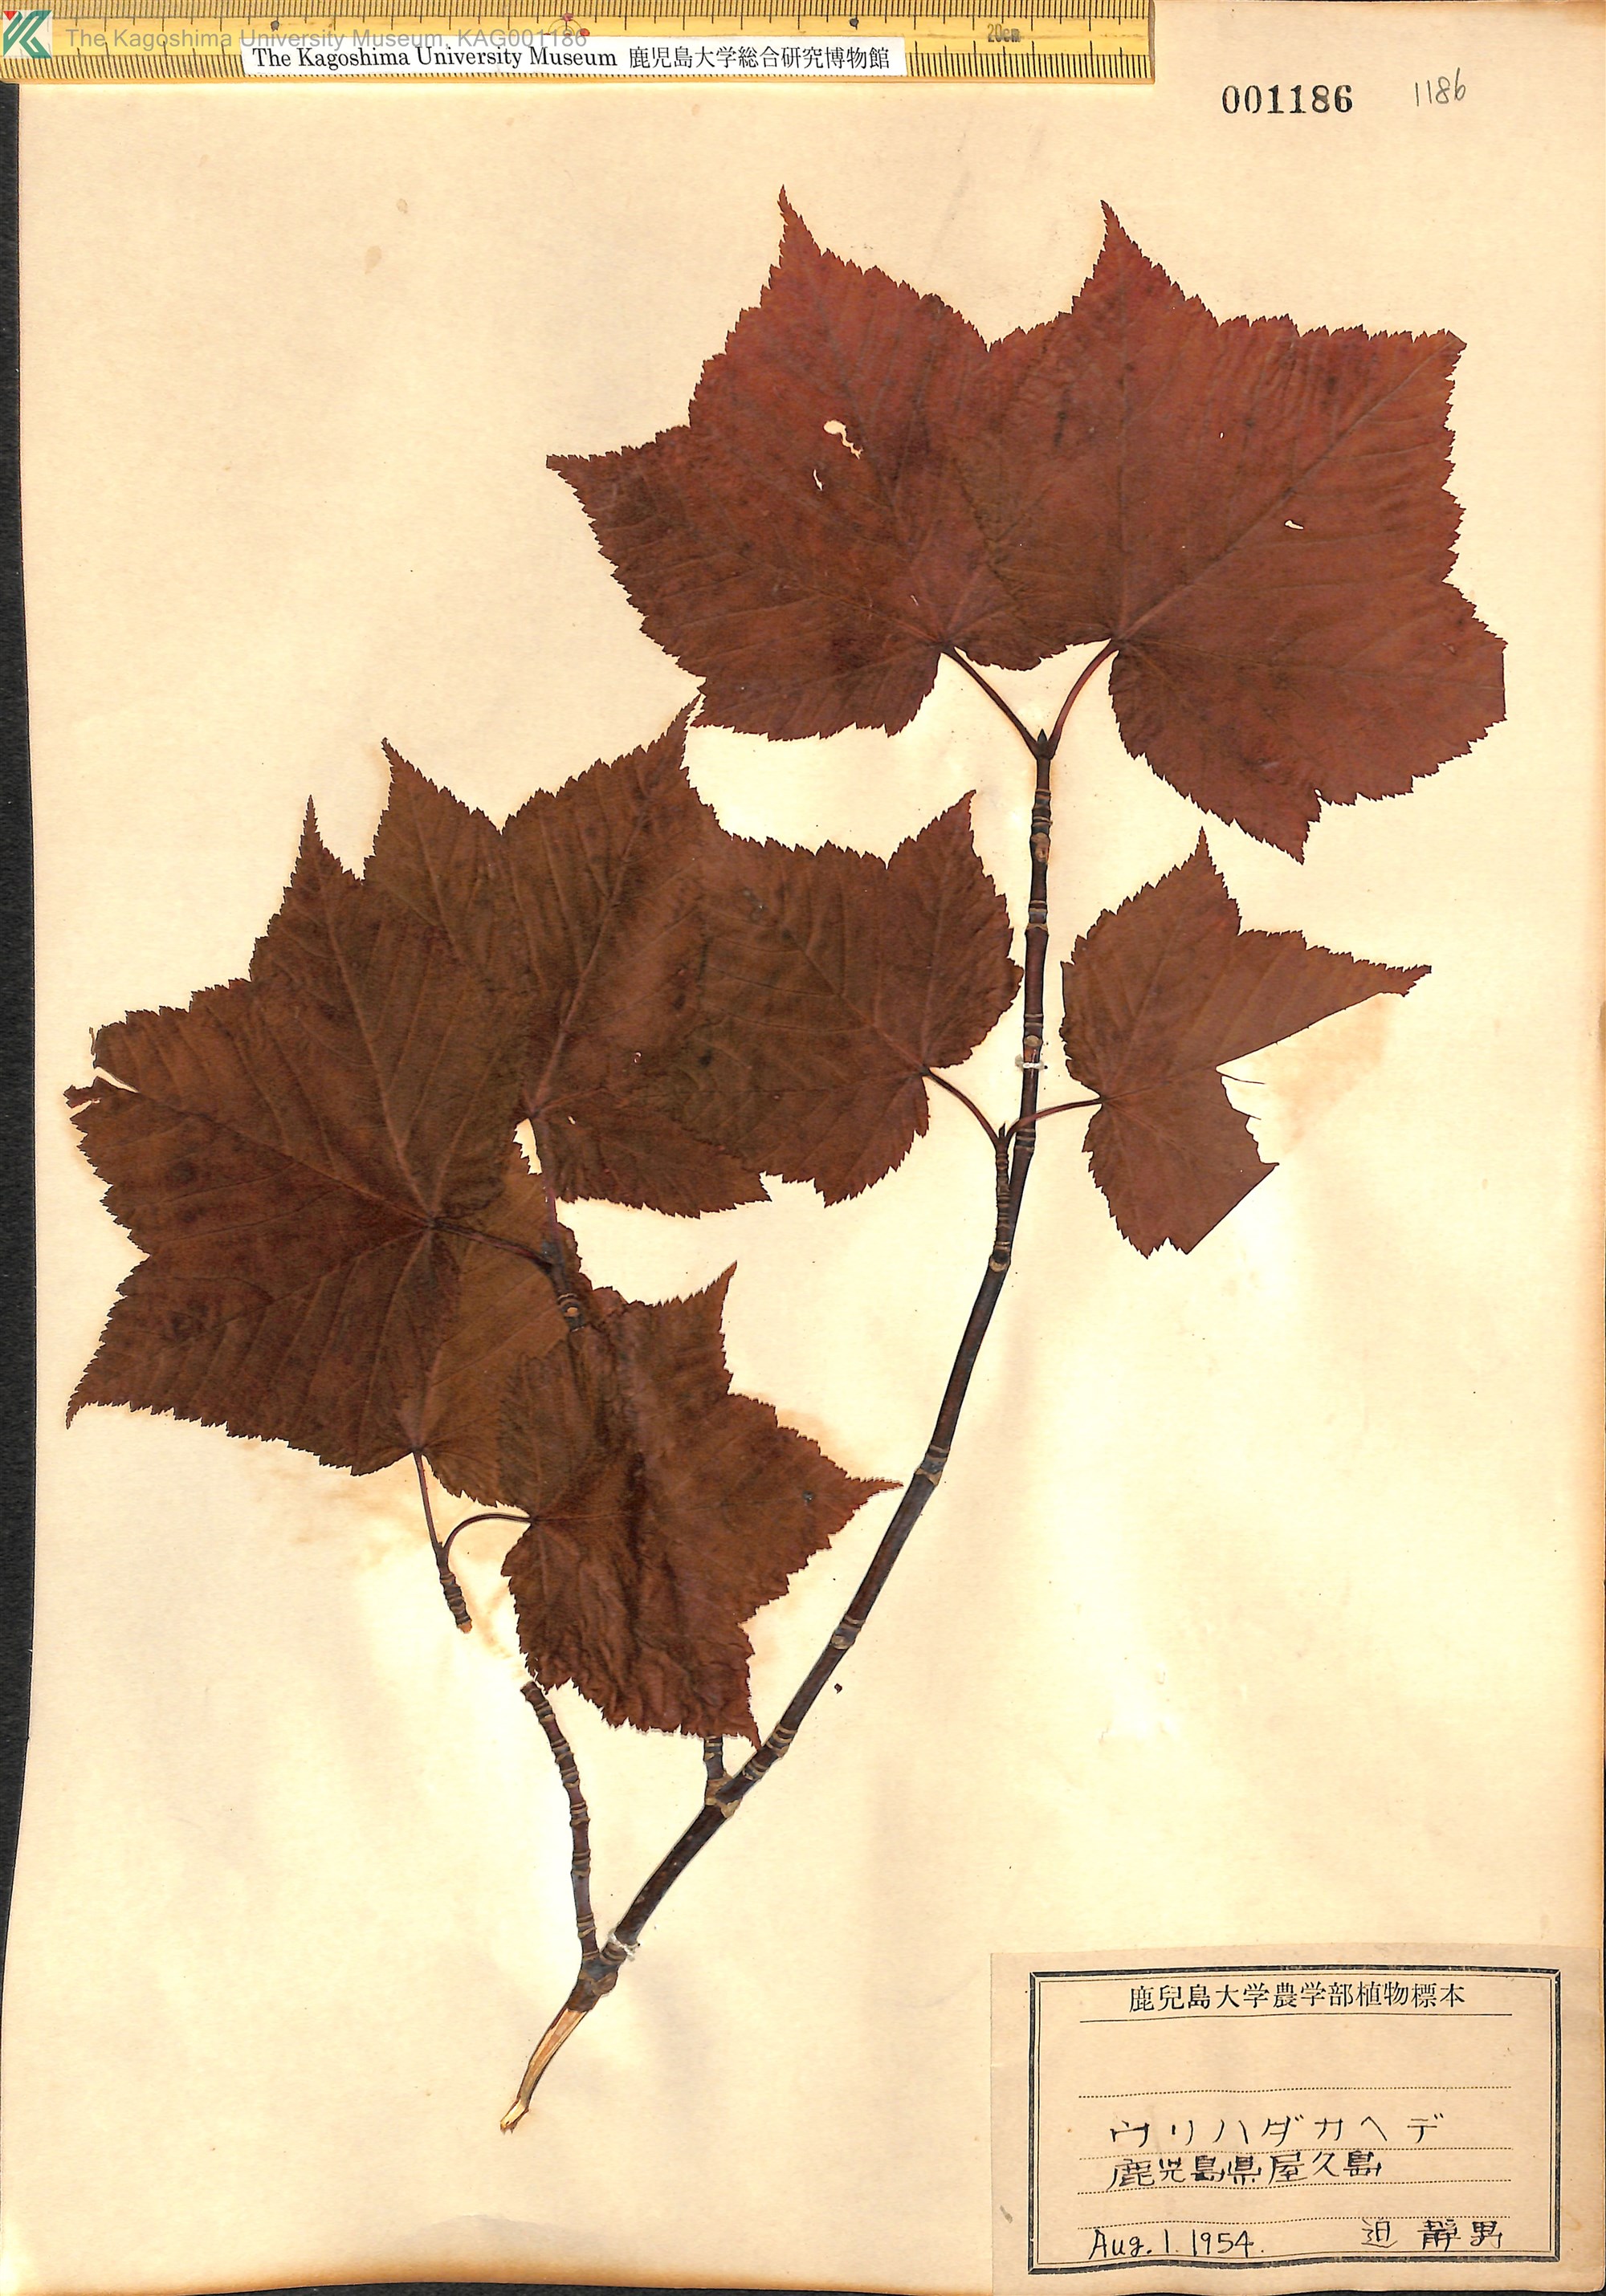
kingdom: Plantae
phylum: Tracheophyta
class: Magnoliopsida
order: Sapindales
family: Sapindaceae
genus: Acer
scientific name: Acer rufinerve
